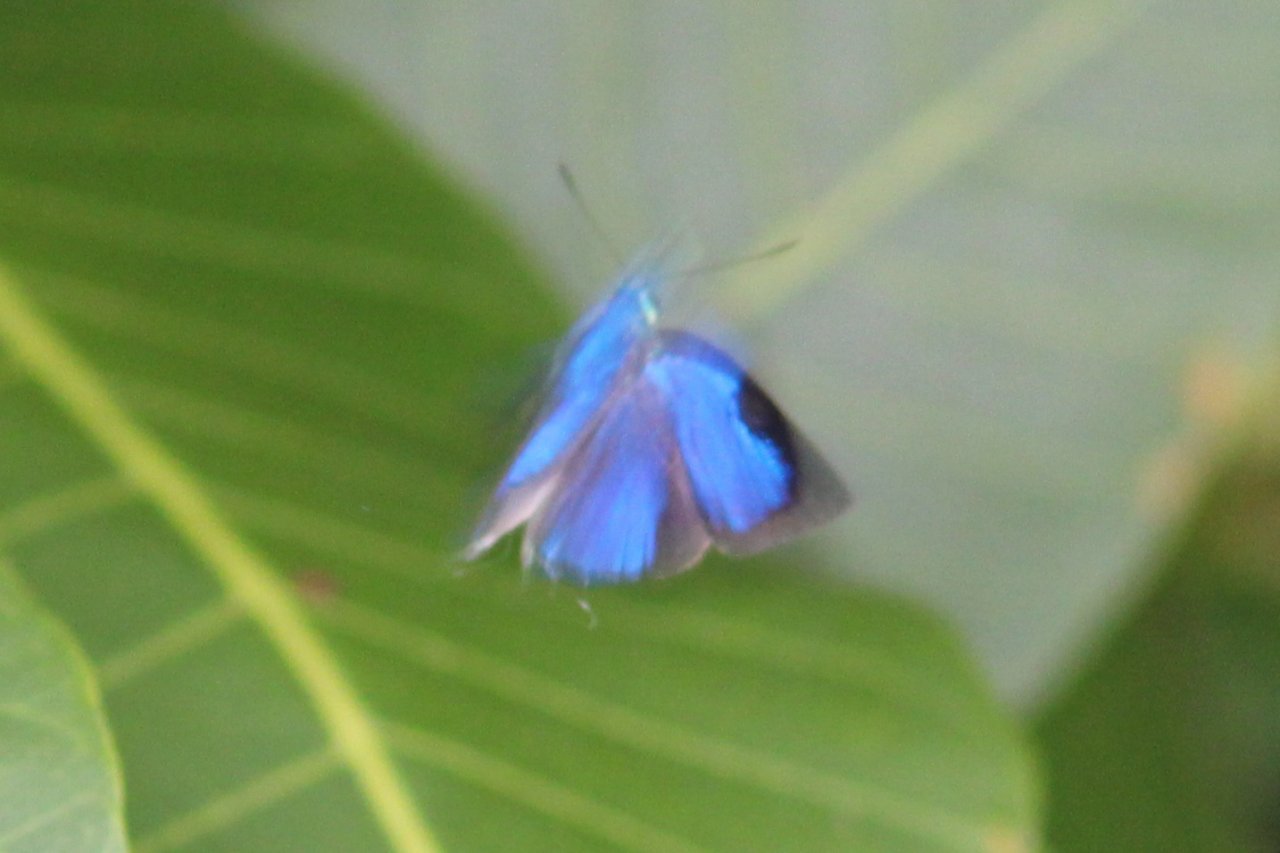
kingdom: Animalia
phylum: Arthropoda
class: Insecta
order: Lepidoptera
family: Lycaenidae
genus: Chalybs
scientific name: Chalybs janias
